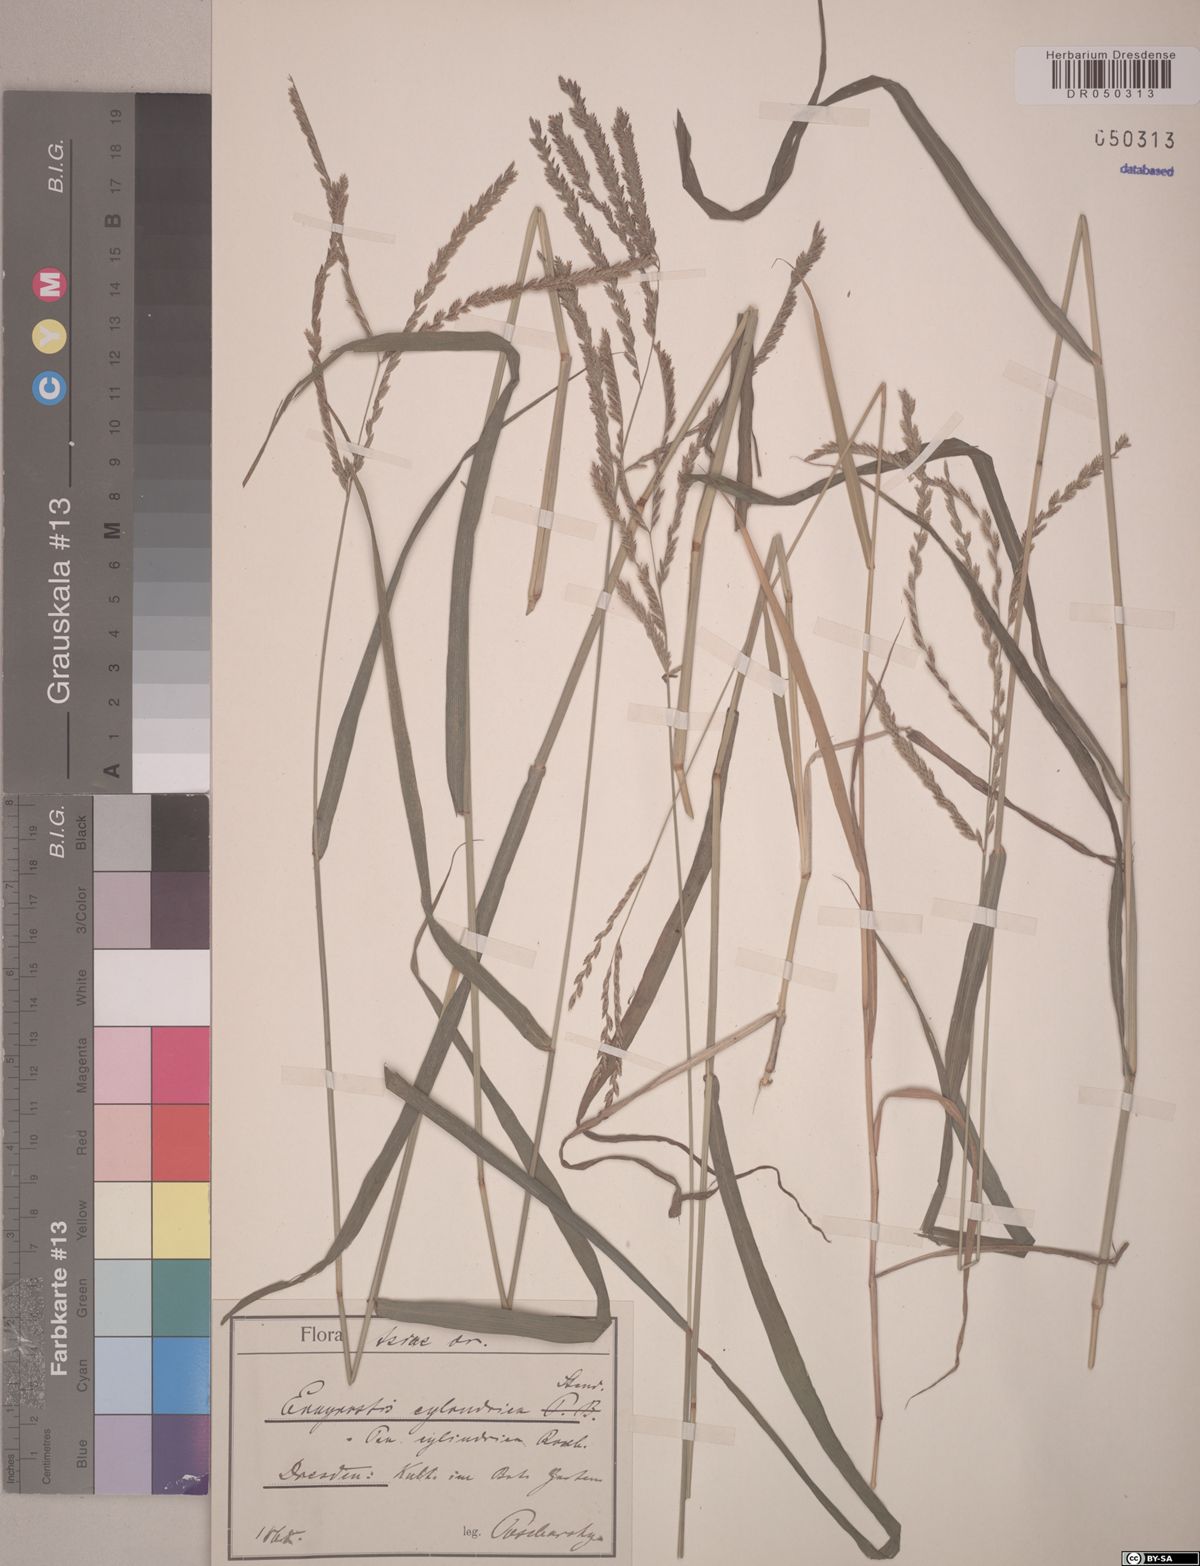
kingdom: Plantae
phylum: Tracheophyta
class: Liliopsida
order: Poales
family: Poaceae
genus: Eragrostis
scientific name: Eragrostis cylindrica
